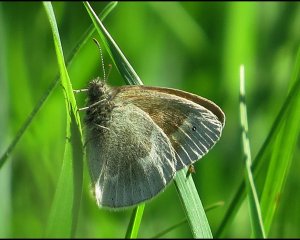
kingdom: Animalia
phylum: Arthropoda
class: Insecta
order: Lepidoptera
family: Nymphalidae
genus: Coenonympha
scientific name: Coenonympha tullia
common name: Large Heath
